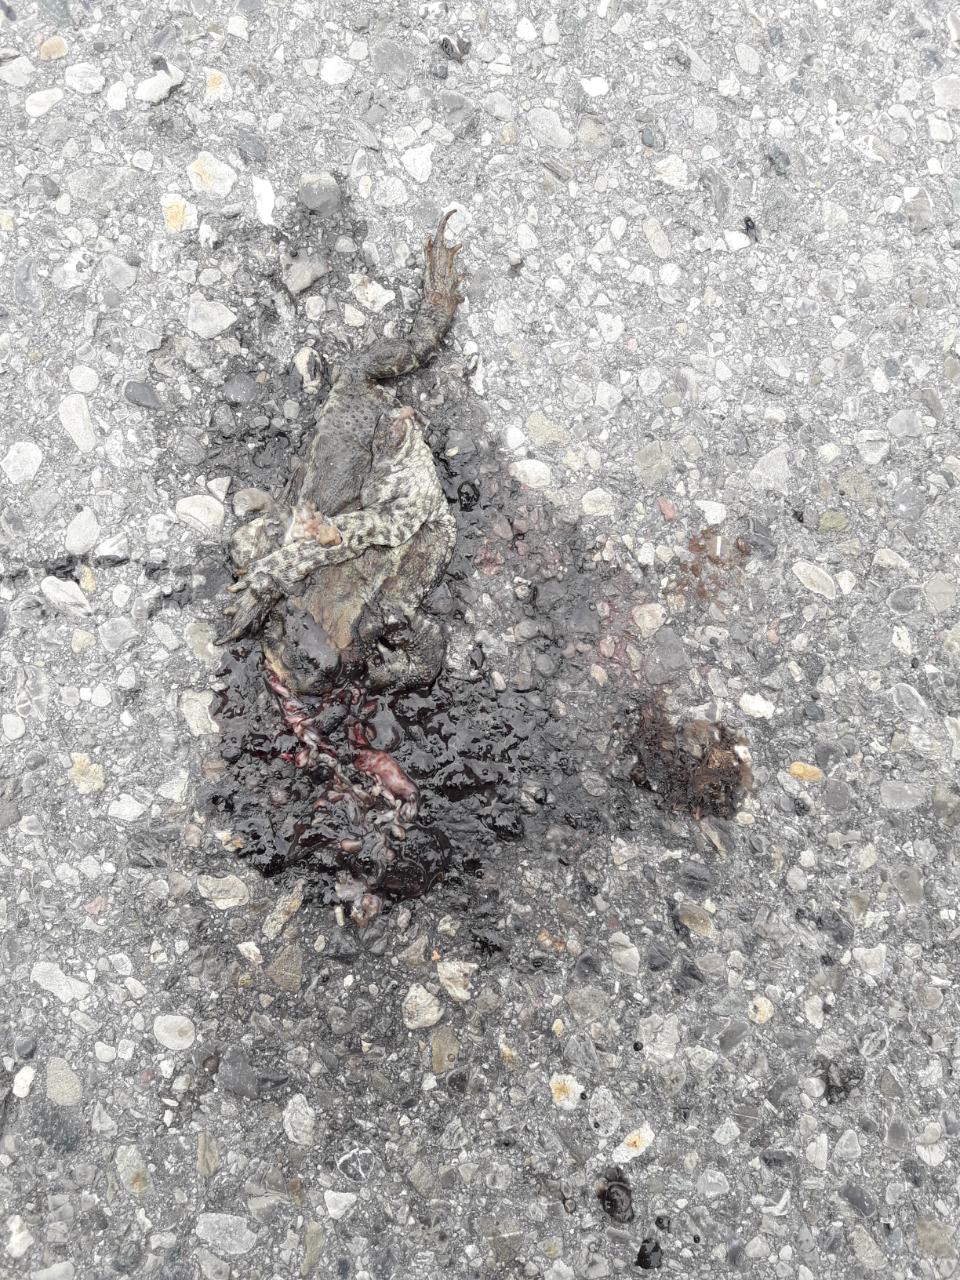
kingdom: Animalia
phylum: Chordata
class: Amphibia
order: Anura
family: Bufonidae
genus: Bufo
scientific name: Bufo bufo
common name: Common toad
